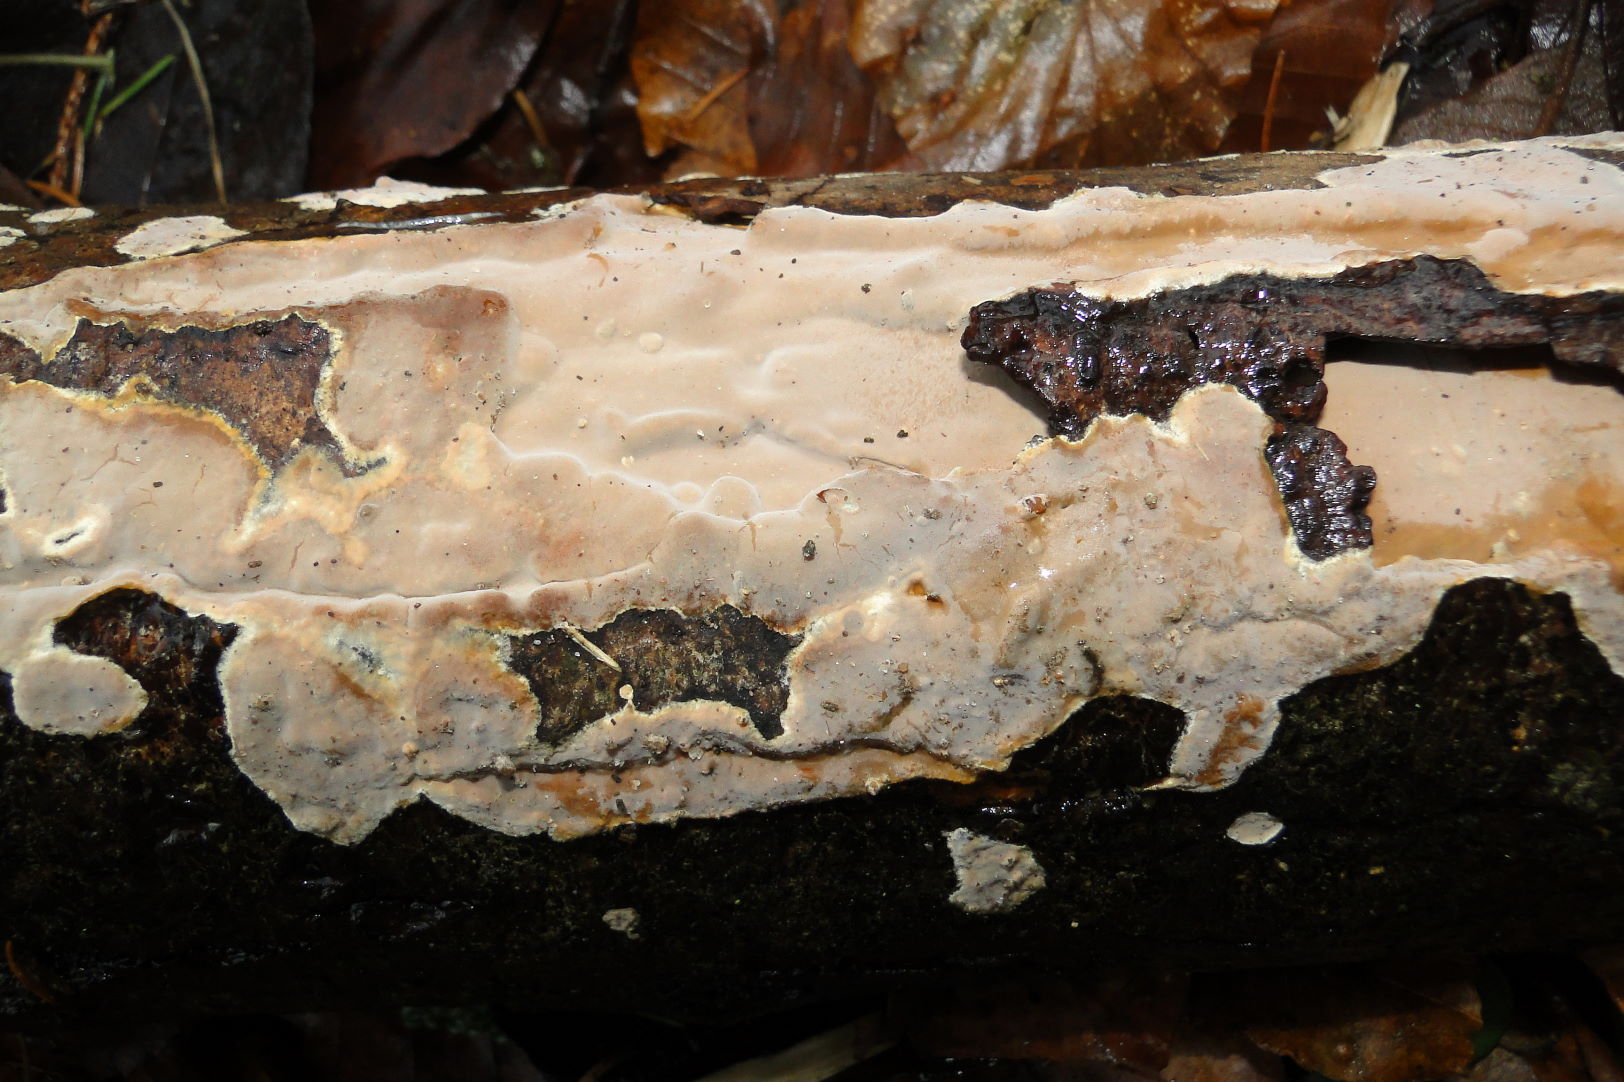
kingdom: Fungi
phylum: Basidiomycota
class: Agaricomycetes
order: Russulales
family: Peniophoraceae
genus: Scytinostroma
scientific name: Scytinostroma hemidichophyticum
